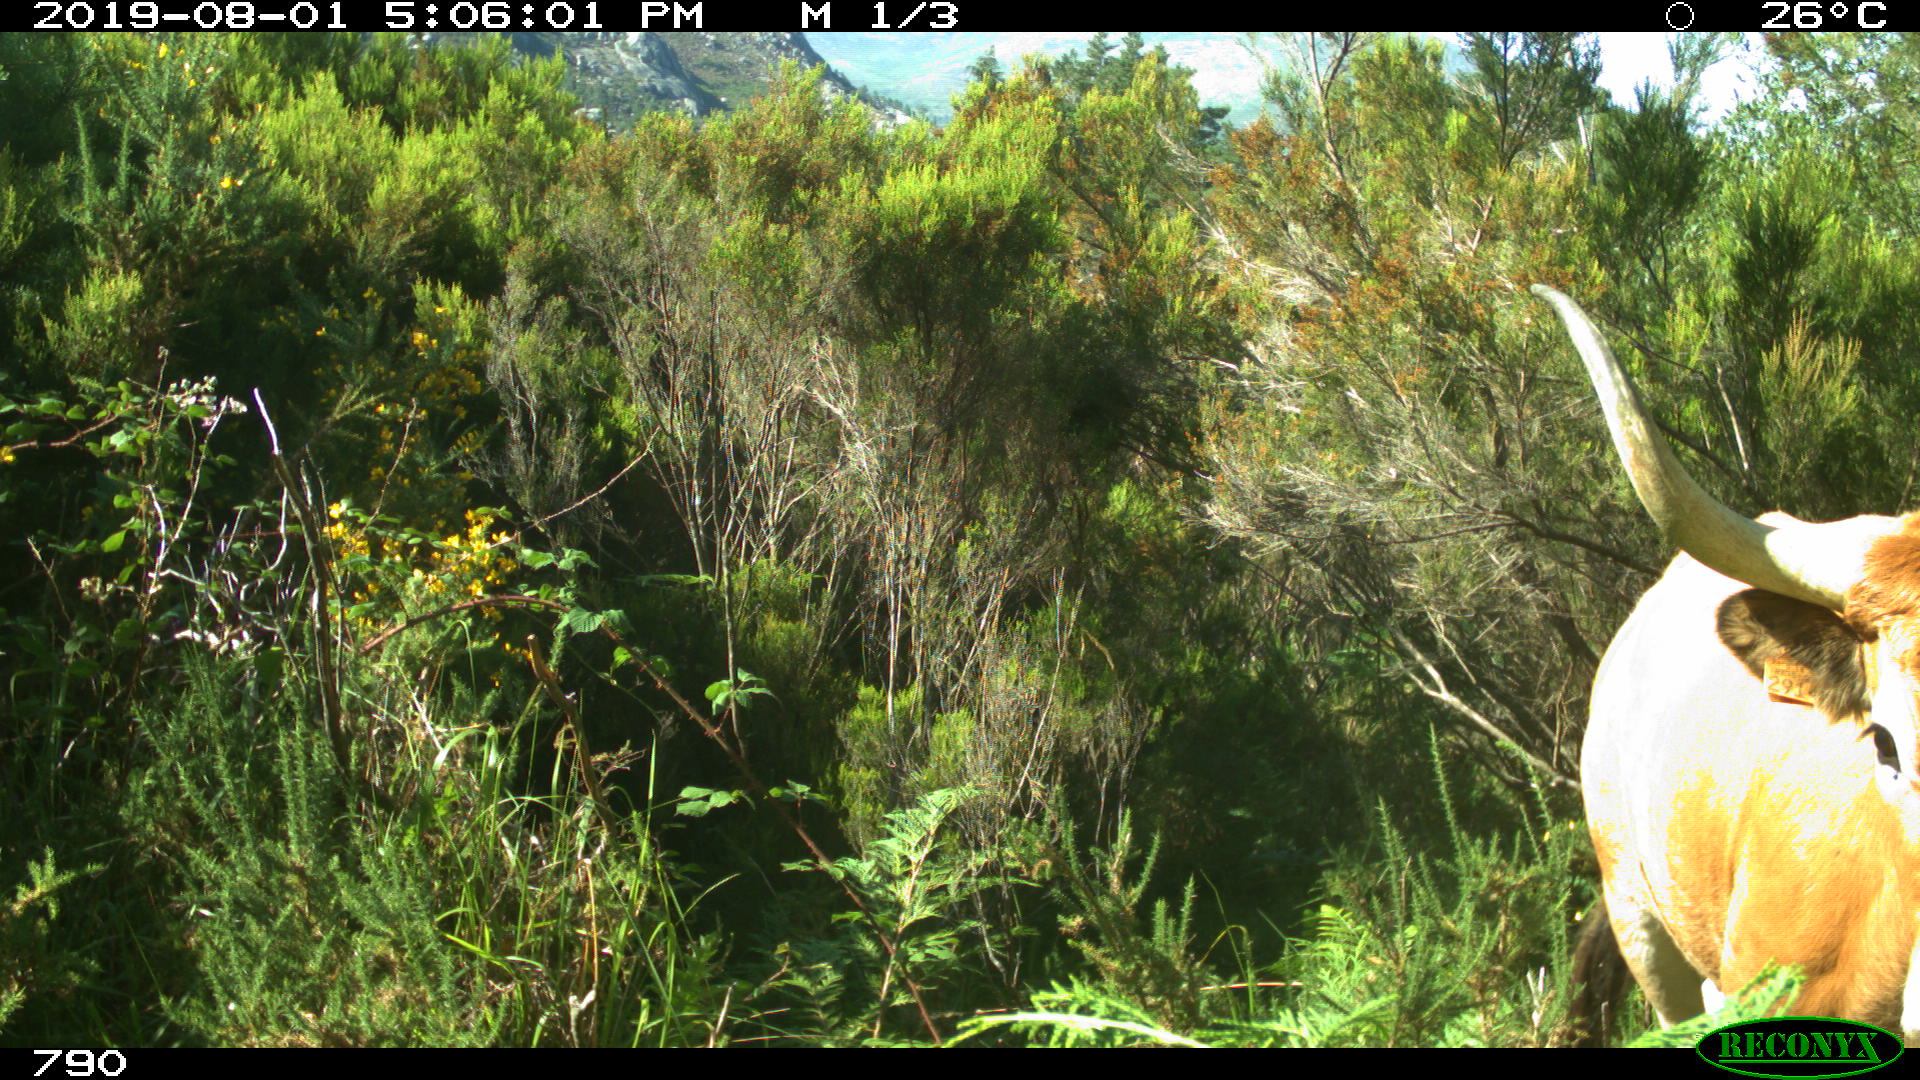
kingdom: Animalia
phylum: Chordata
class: Mammalia
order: Artiodactyla
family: Bovidae
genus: Bos
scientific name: Bos taurus
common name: Domesticated cattle
